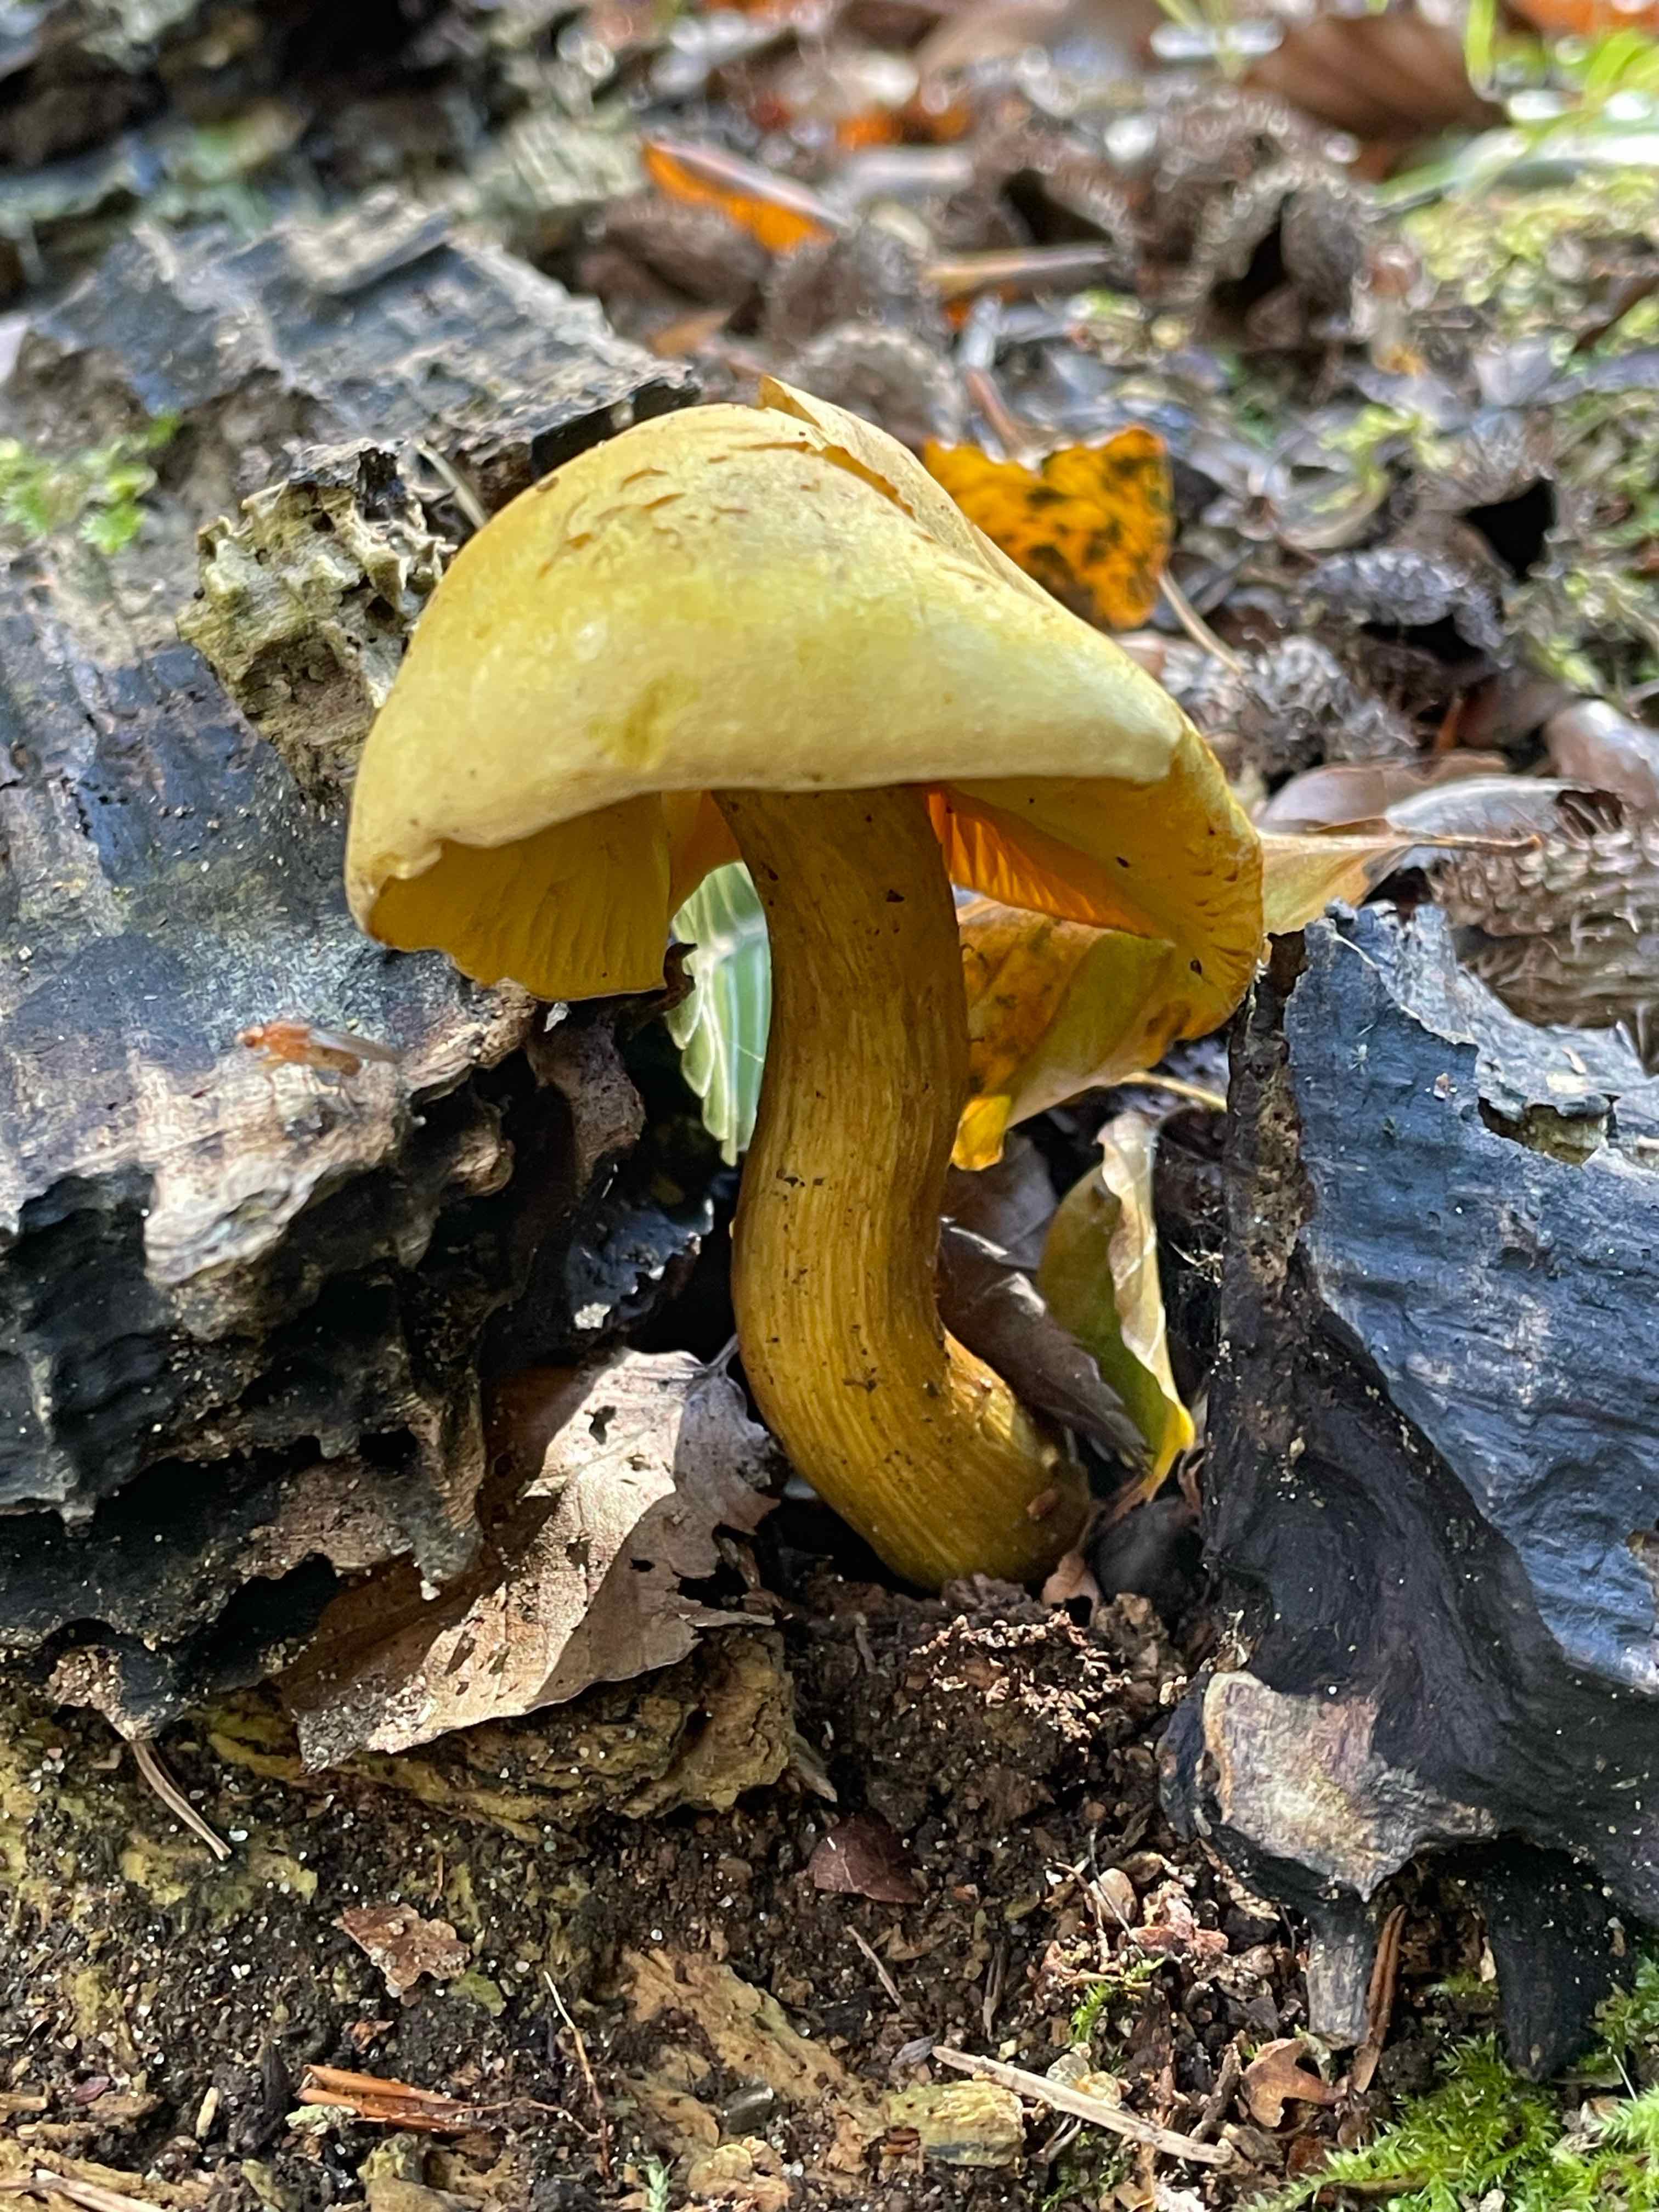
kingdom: Fungi
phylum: Basidiomycota
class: Agaricomycetes
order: Agaricales
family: Tricholomataceae
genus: Tricholoma
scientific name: Tricholoma sulphureum
